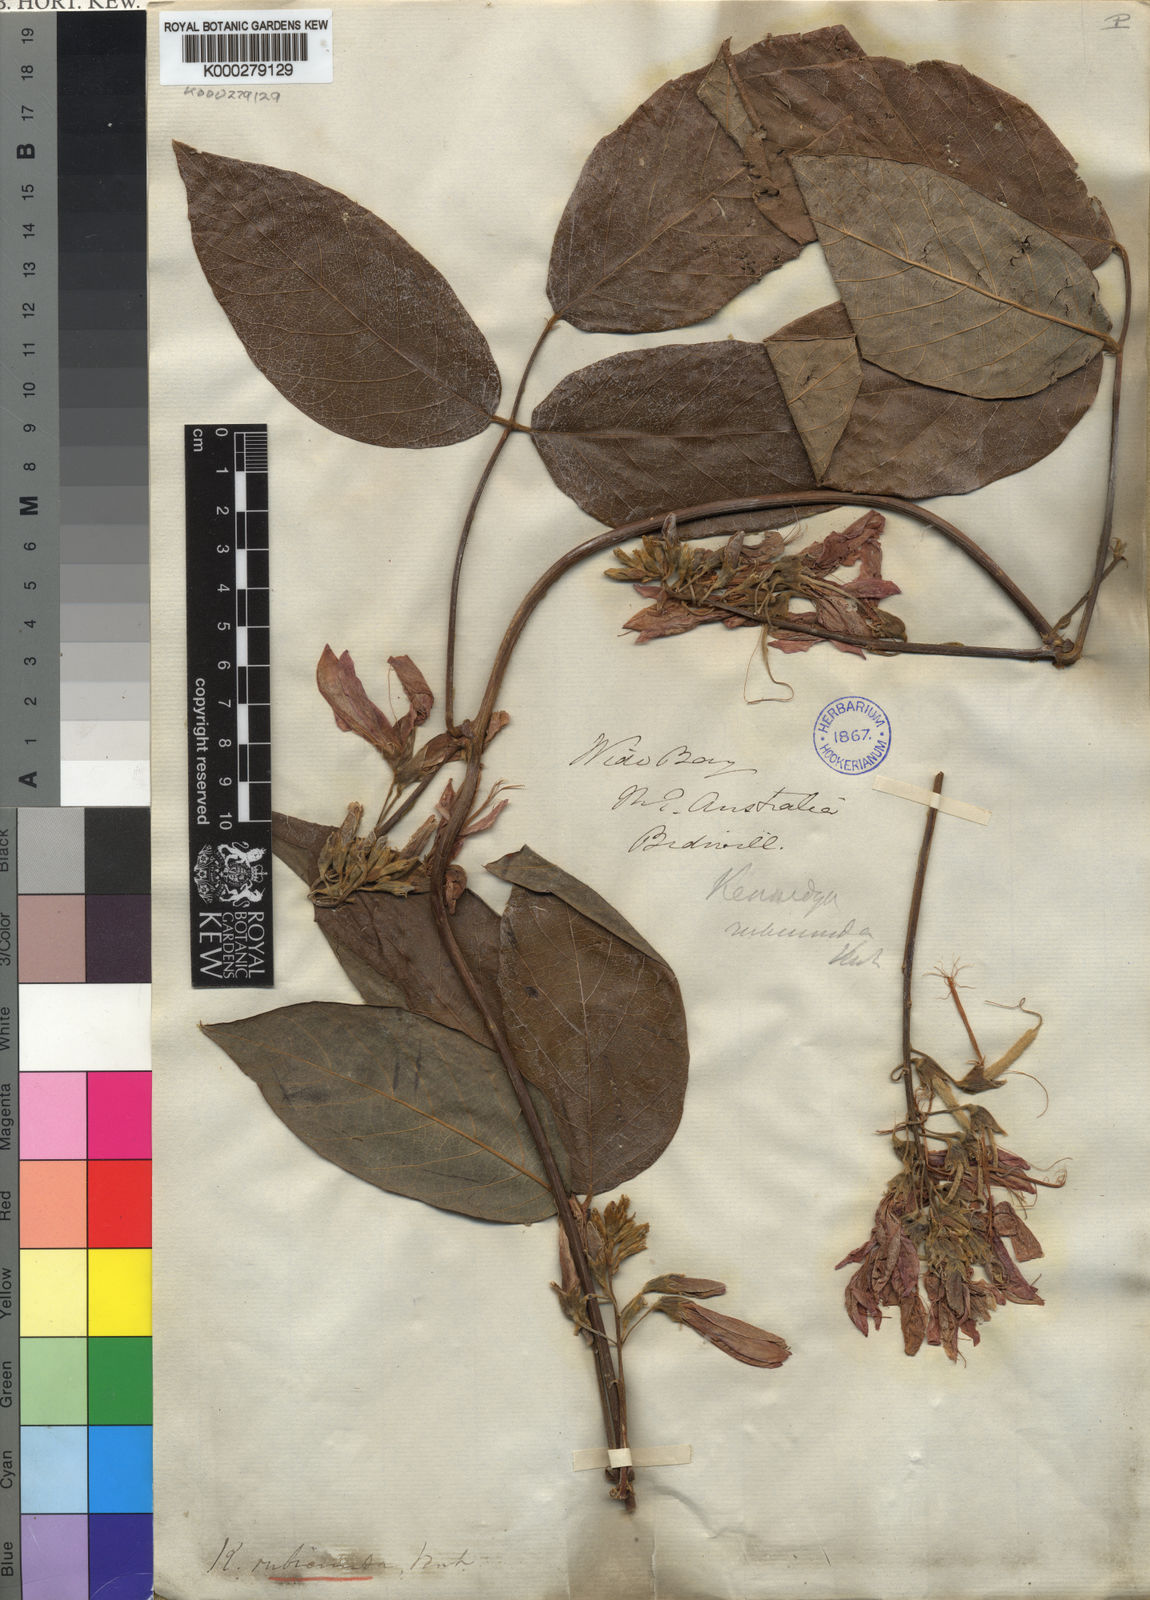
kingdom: Plantae
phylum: Tracheophyta
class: Magnoliopsida
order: Fabales
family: Fabaceae
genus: Kennedia
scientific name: Kennedia rubicunda
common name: Red kennedy-pea
